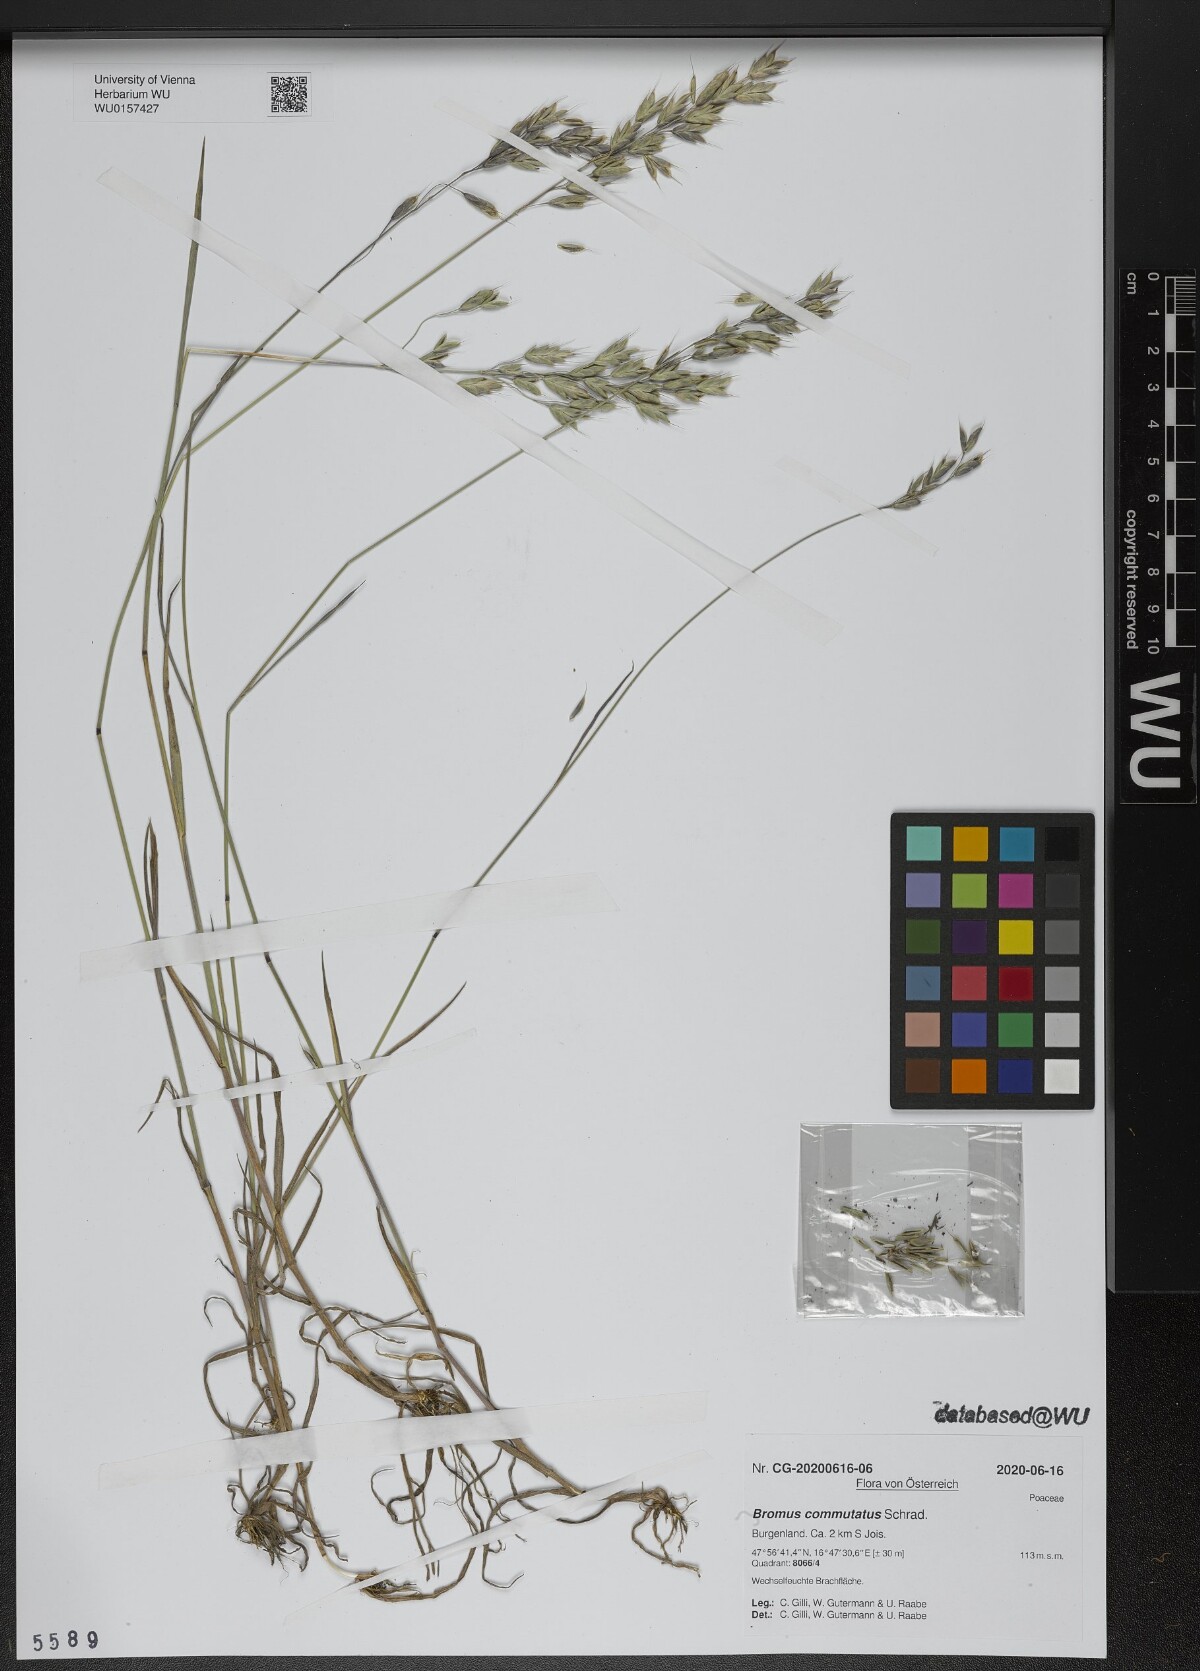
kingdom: Plantae
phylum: Tracheophyta
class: Liliopsida
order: Poales
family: Poaceae
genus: Bromus
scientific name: Bromus commutatus
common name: Meadow brome
